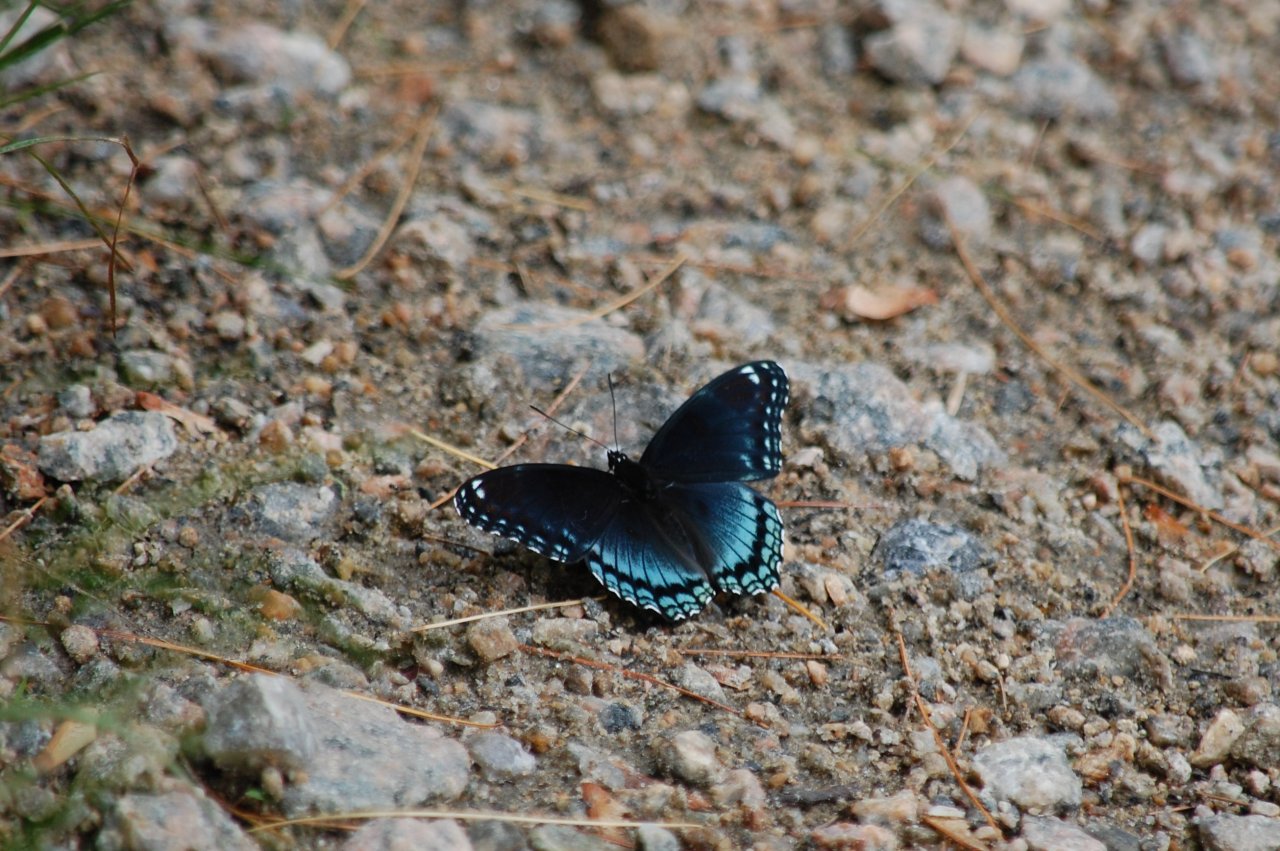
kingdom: Animalia
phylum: Arthropoda
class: Insecta
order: Lepidoptera
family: Nymphalidae
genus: Limenitis
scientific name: Limenitis astyanax
